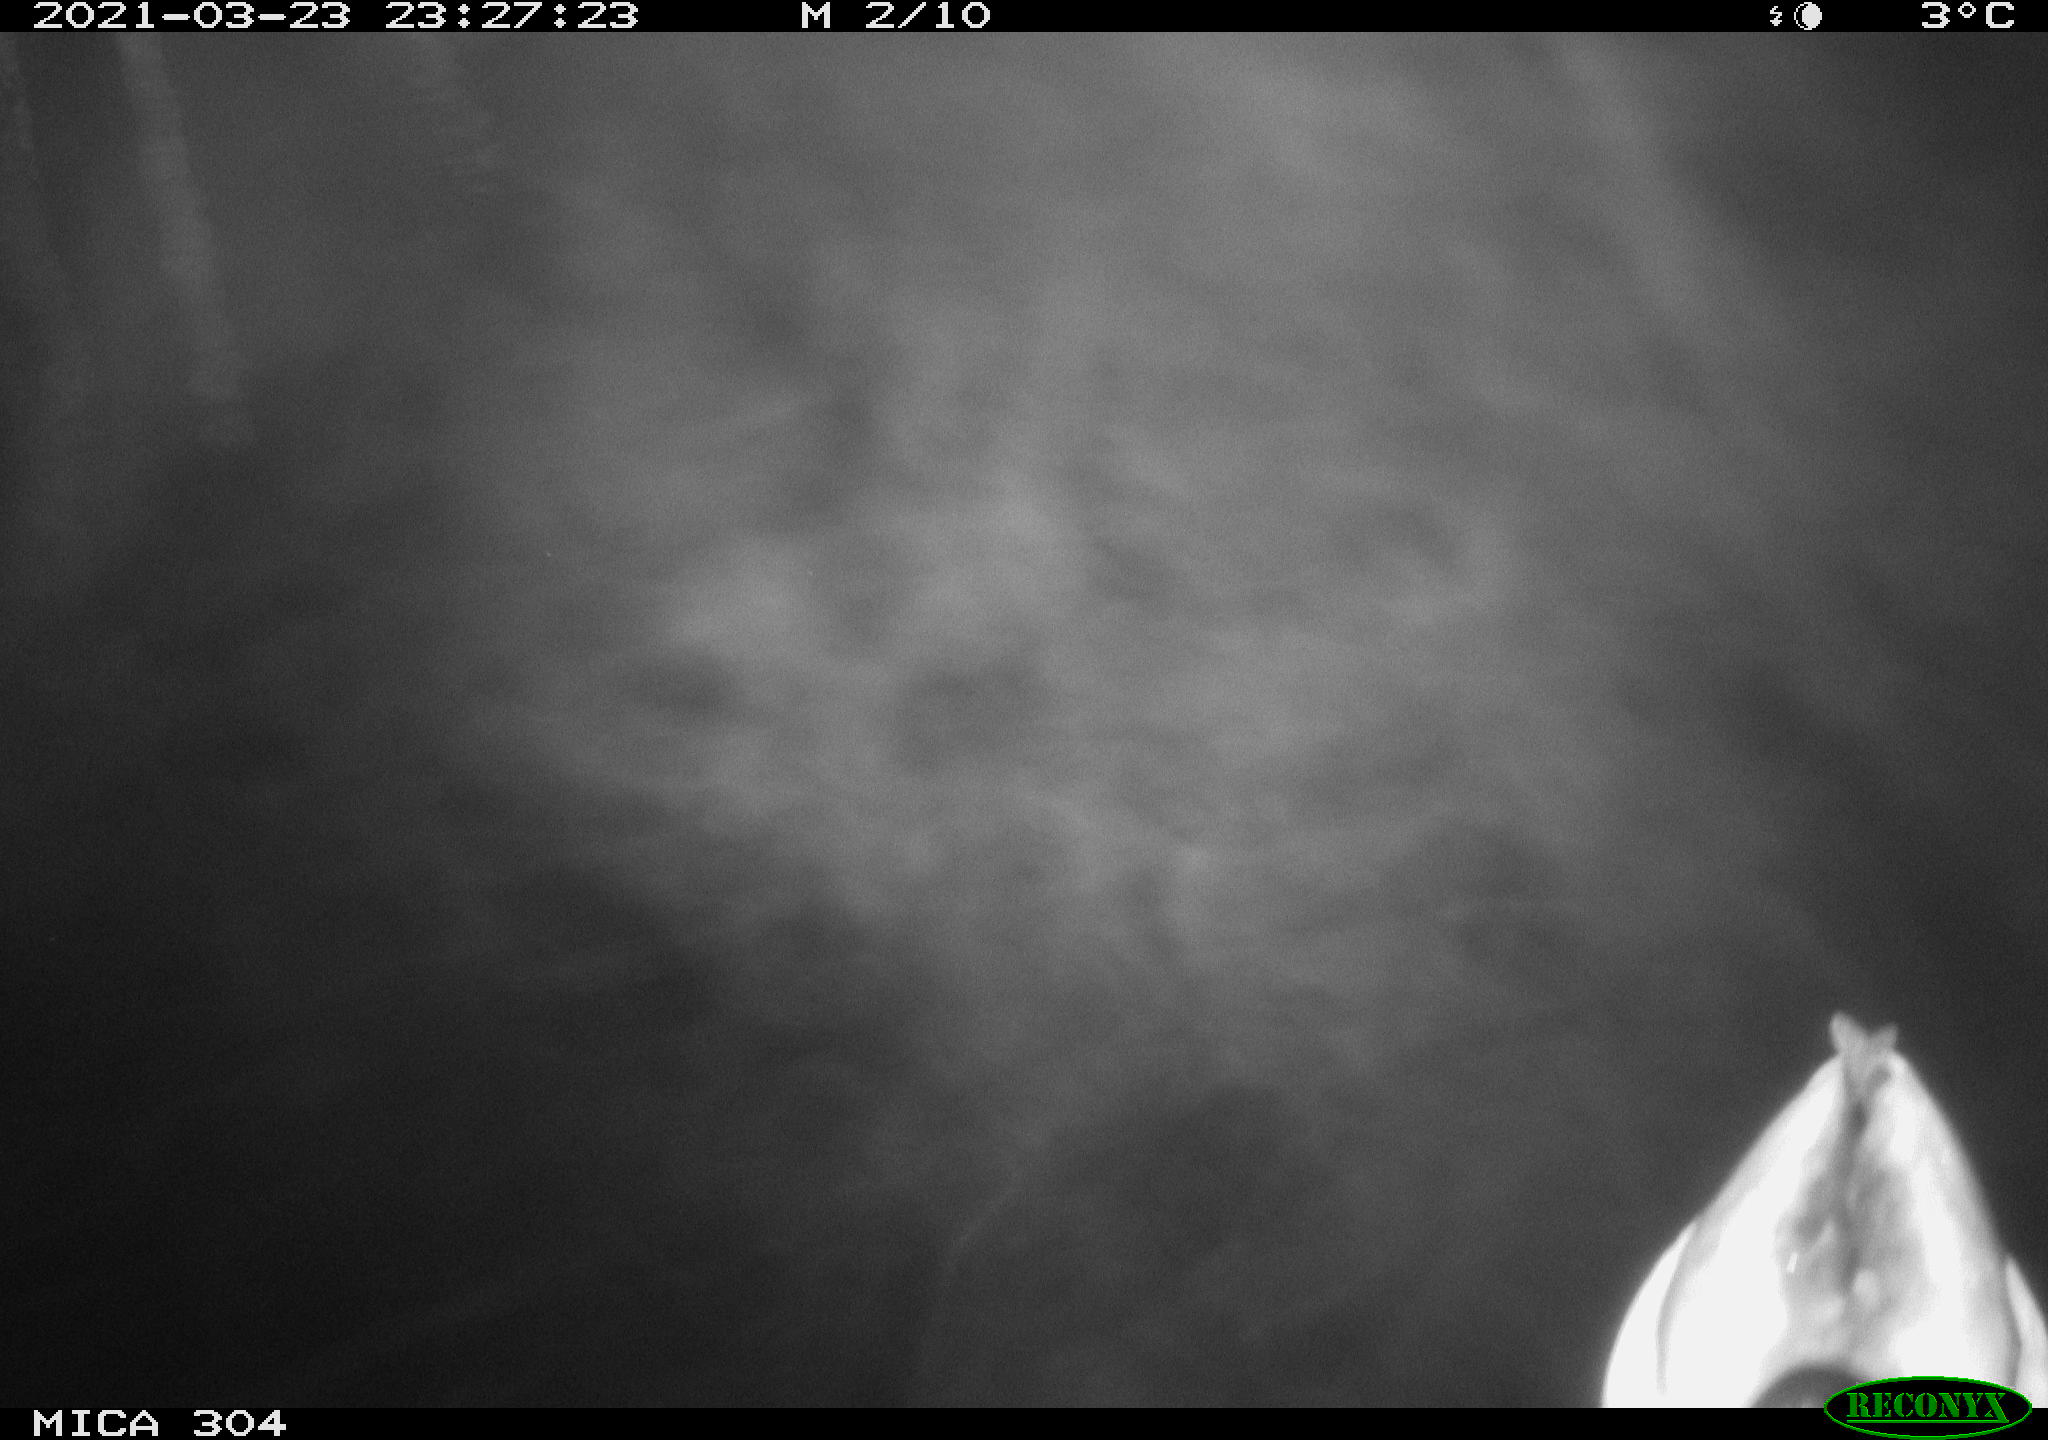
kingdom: Animalia
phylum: Chordata
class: Aves
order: Anseriformes
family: Anatidae
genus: Anas
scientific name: Anas platyrhynchos
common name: Mallard
